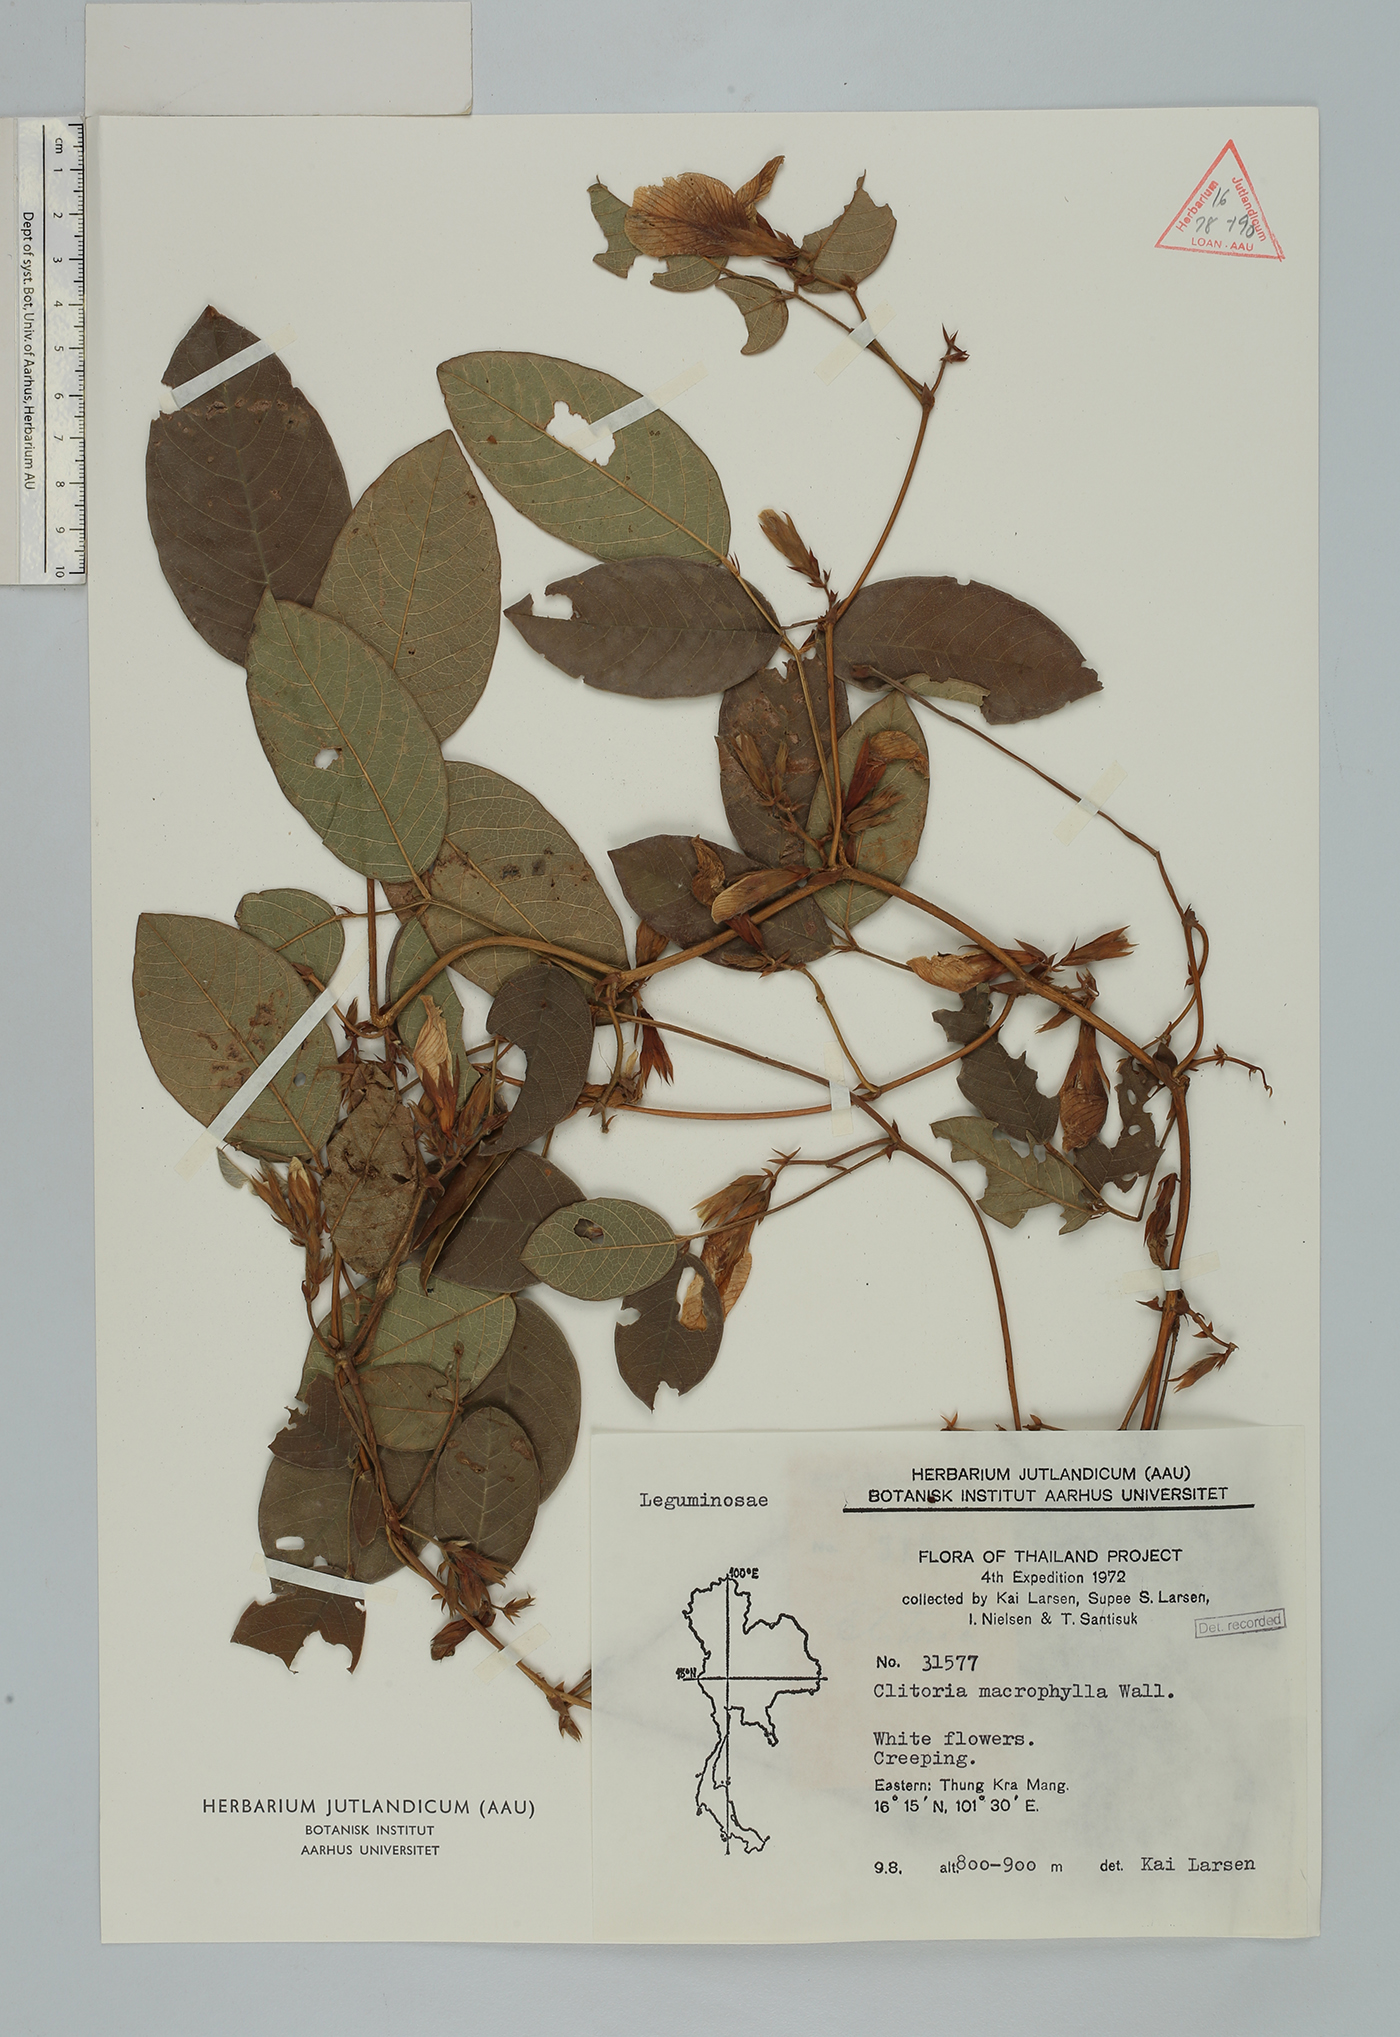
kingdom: Plantae
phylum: Tracheophyta
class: Magnoliopsida
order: Fabales
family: Fabaceae
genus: Clitoria
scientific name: Clitoria macrophylla
